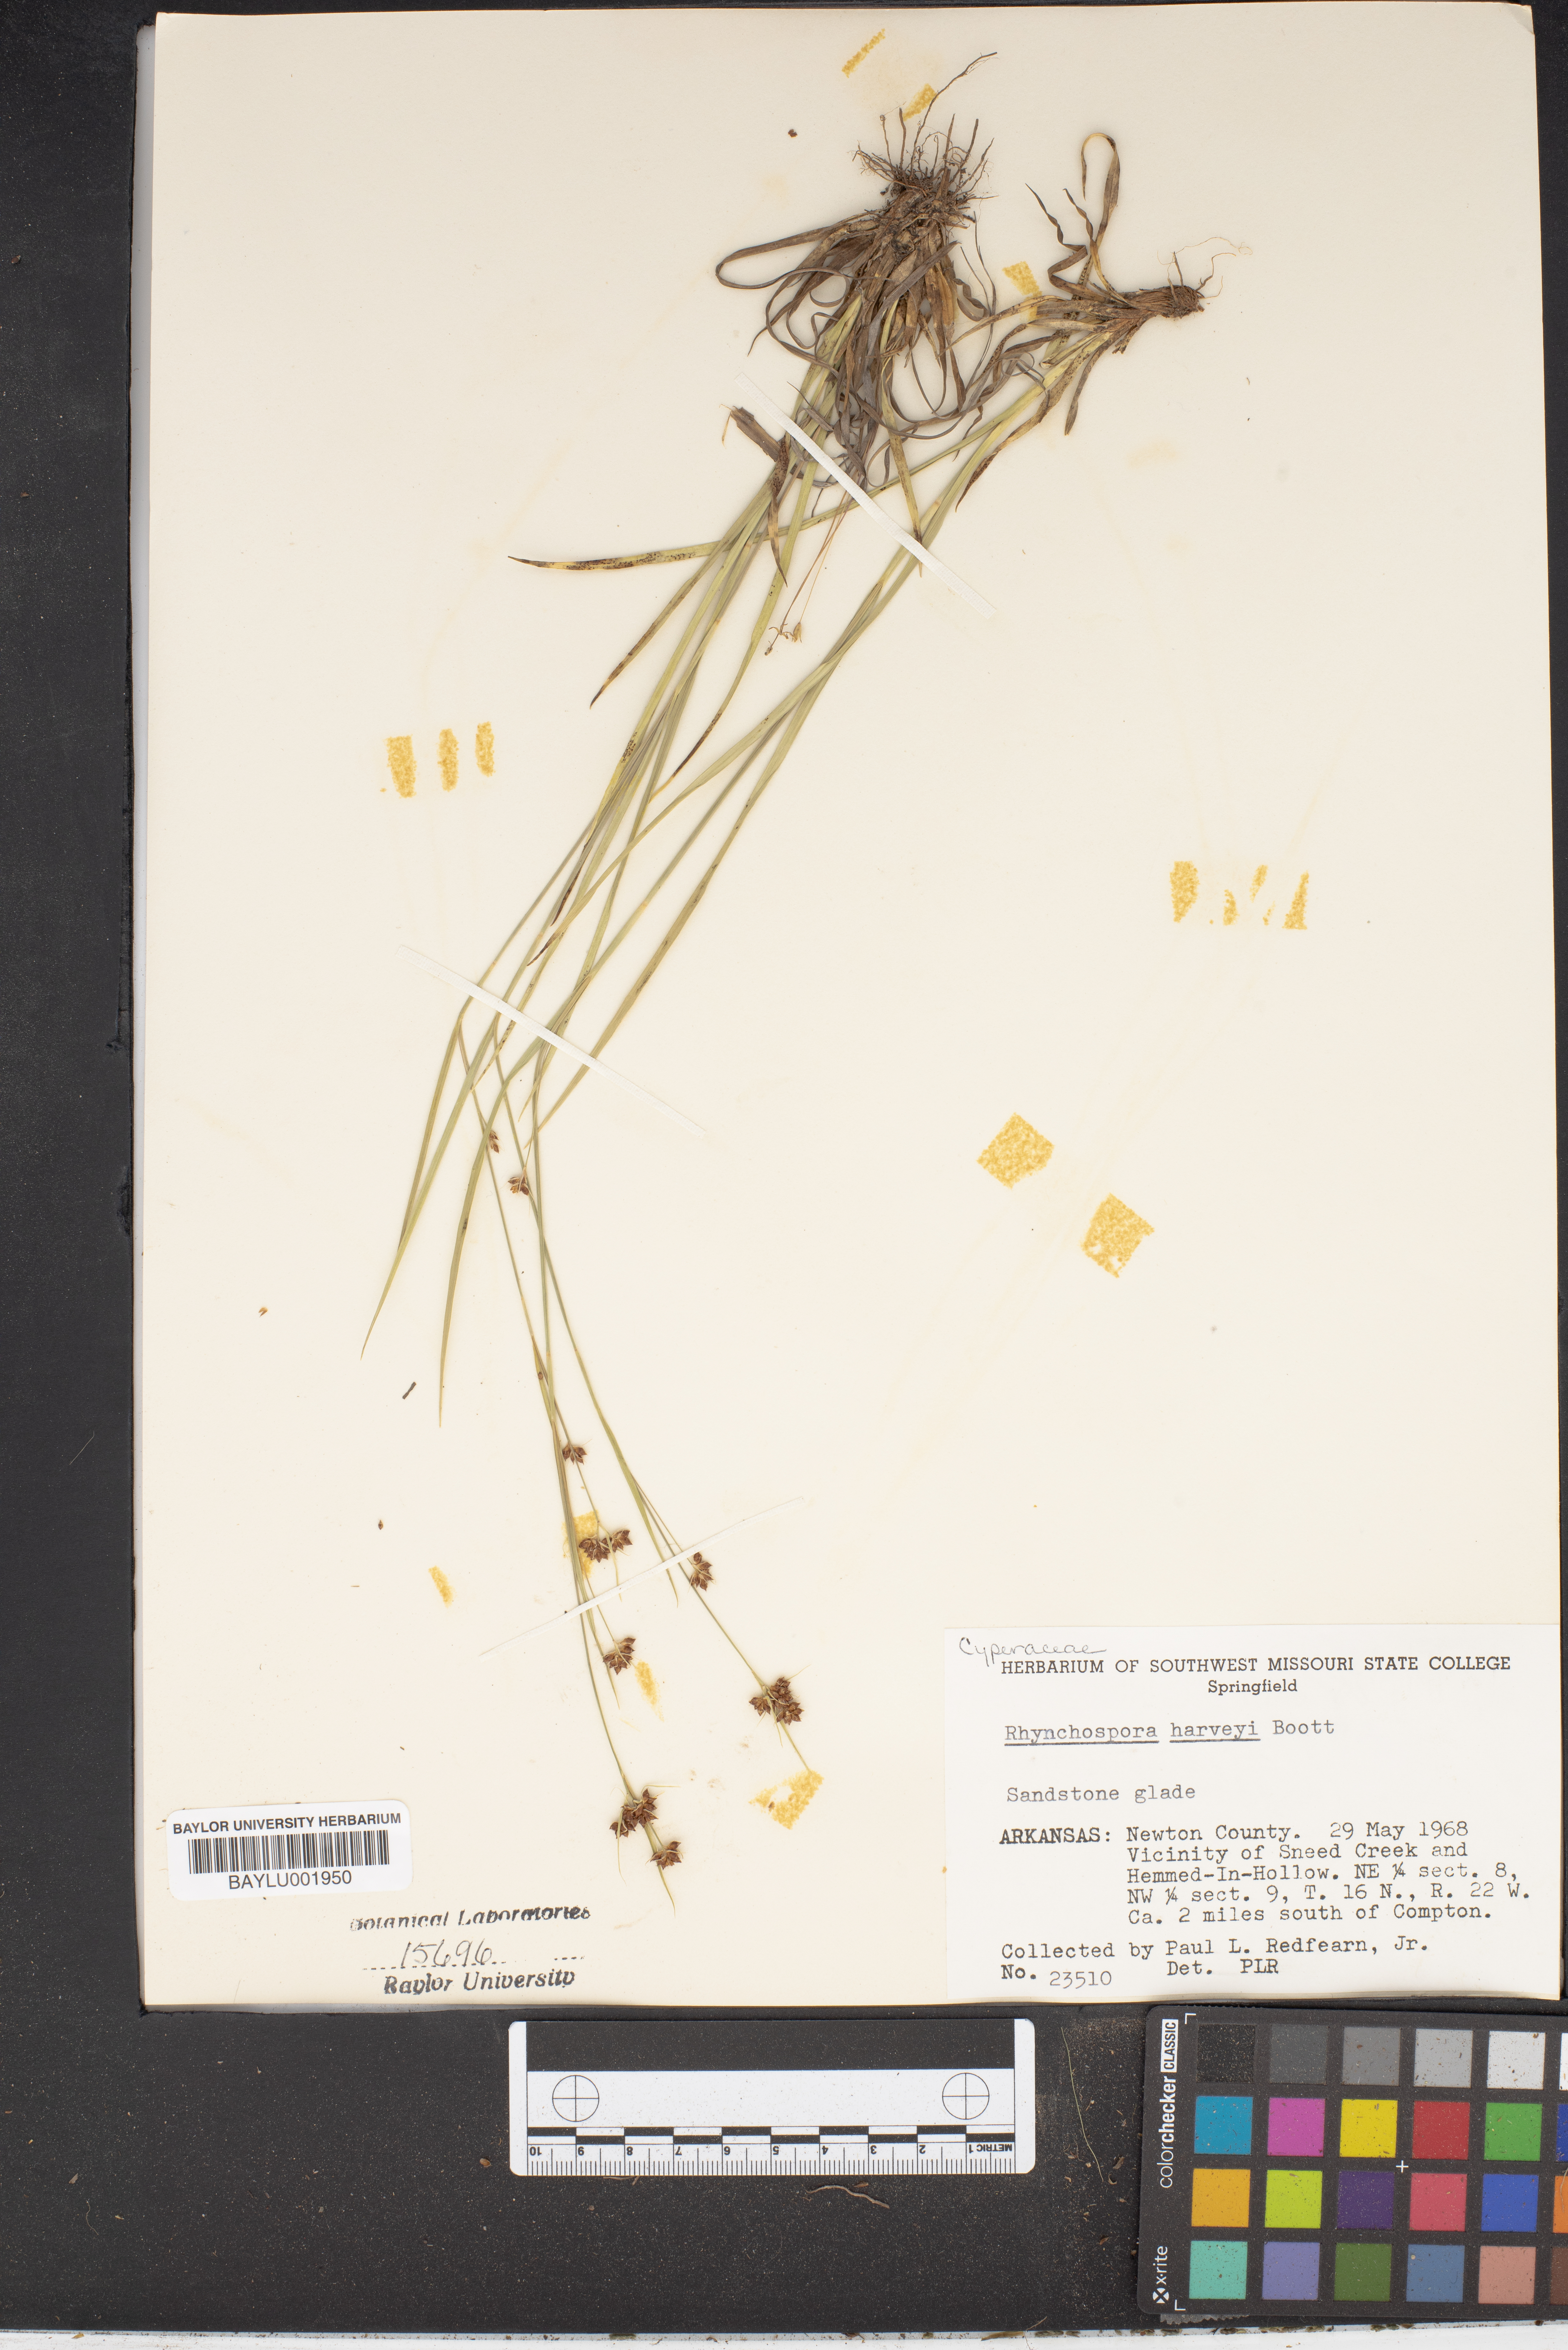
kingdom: Plantae
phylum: Tracheophyta
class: Liliopsida
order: Poales
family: Cyperaceae
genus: Rhynchospora
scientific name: Rhynchospora harveyi
